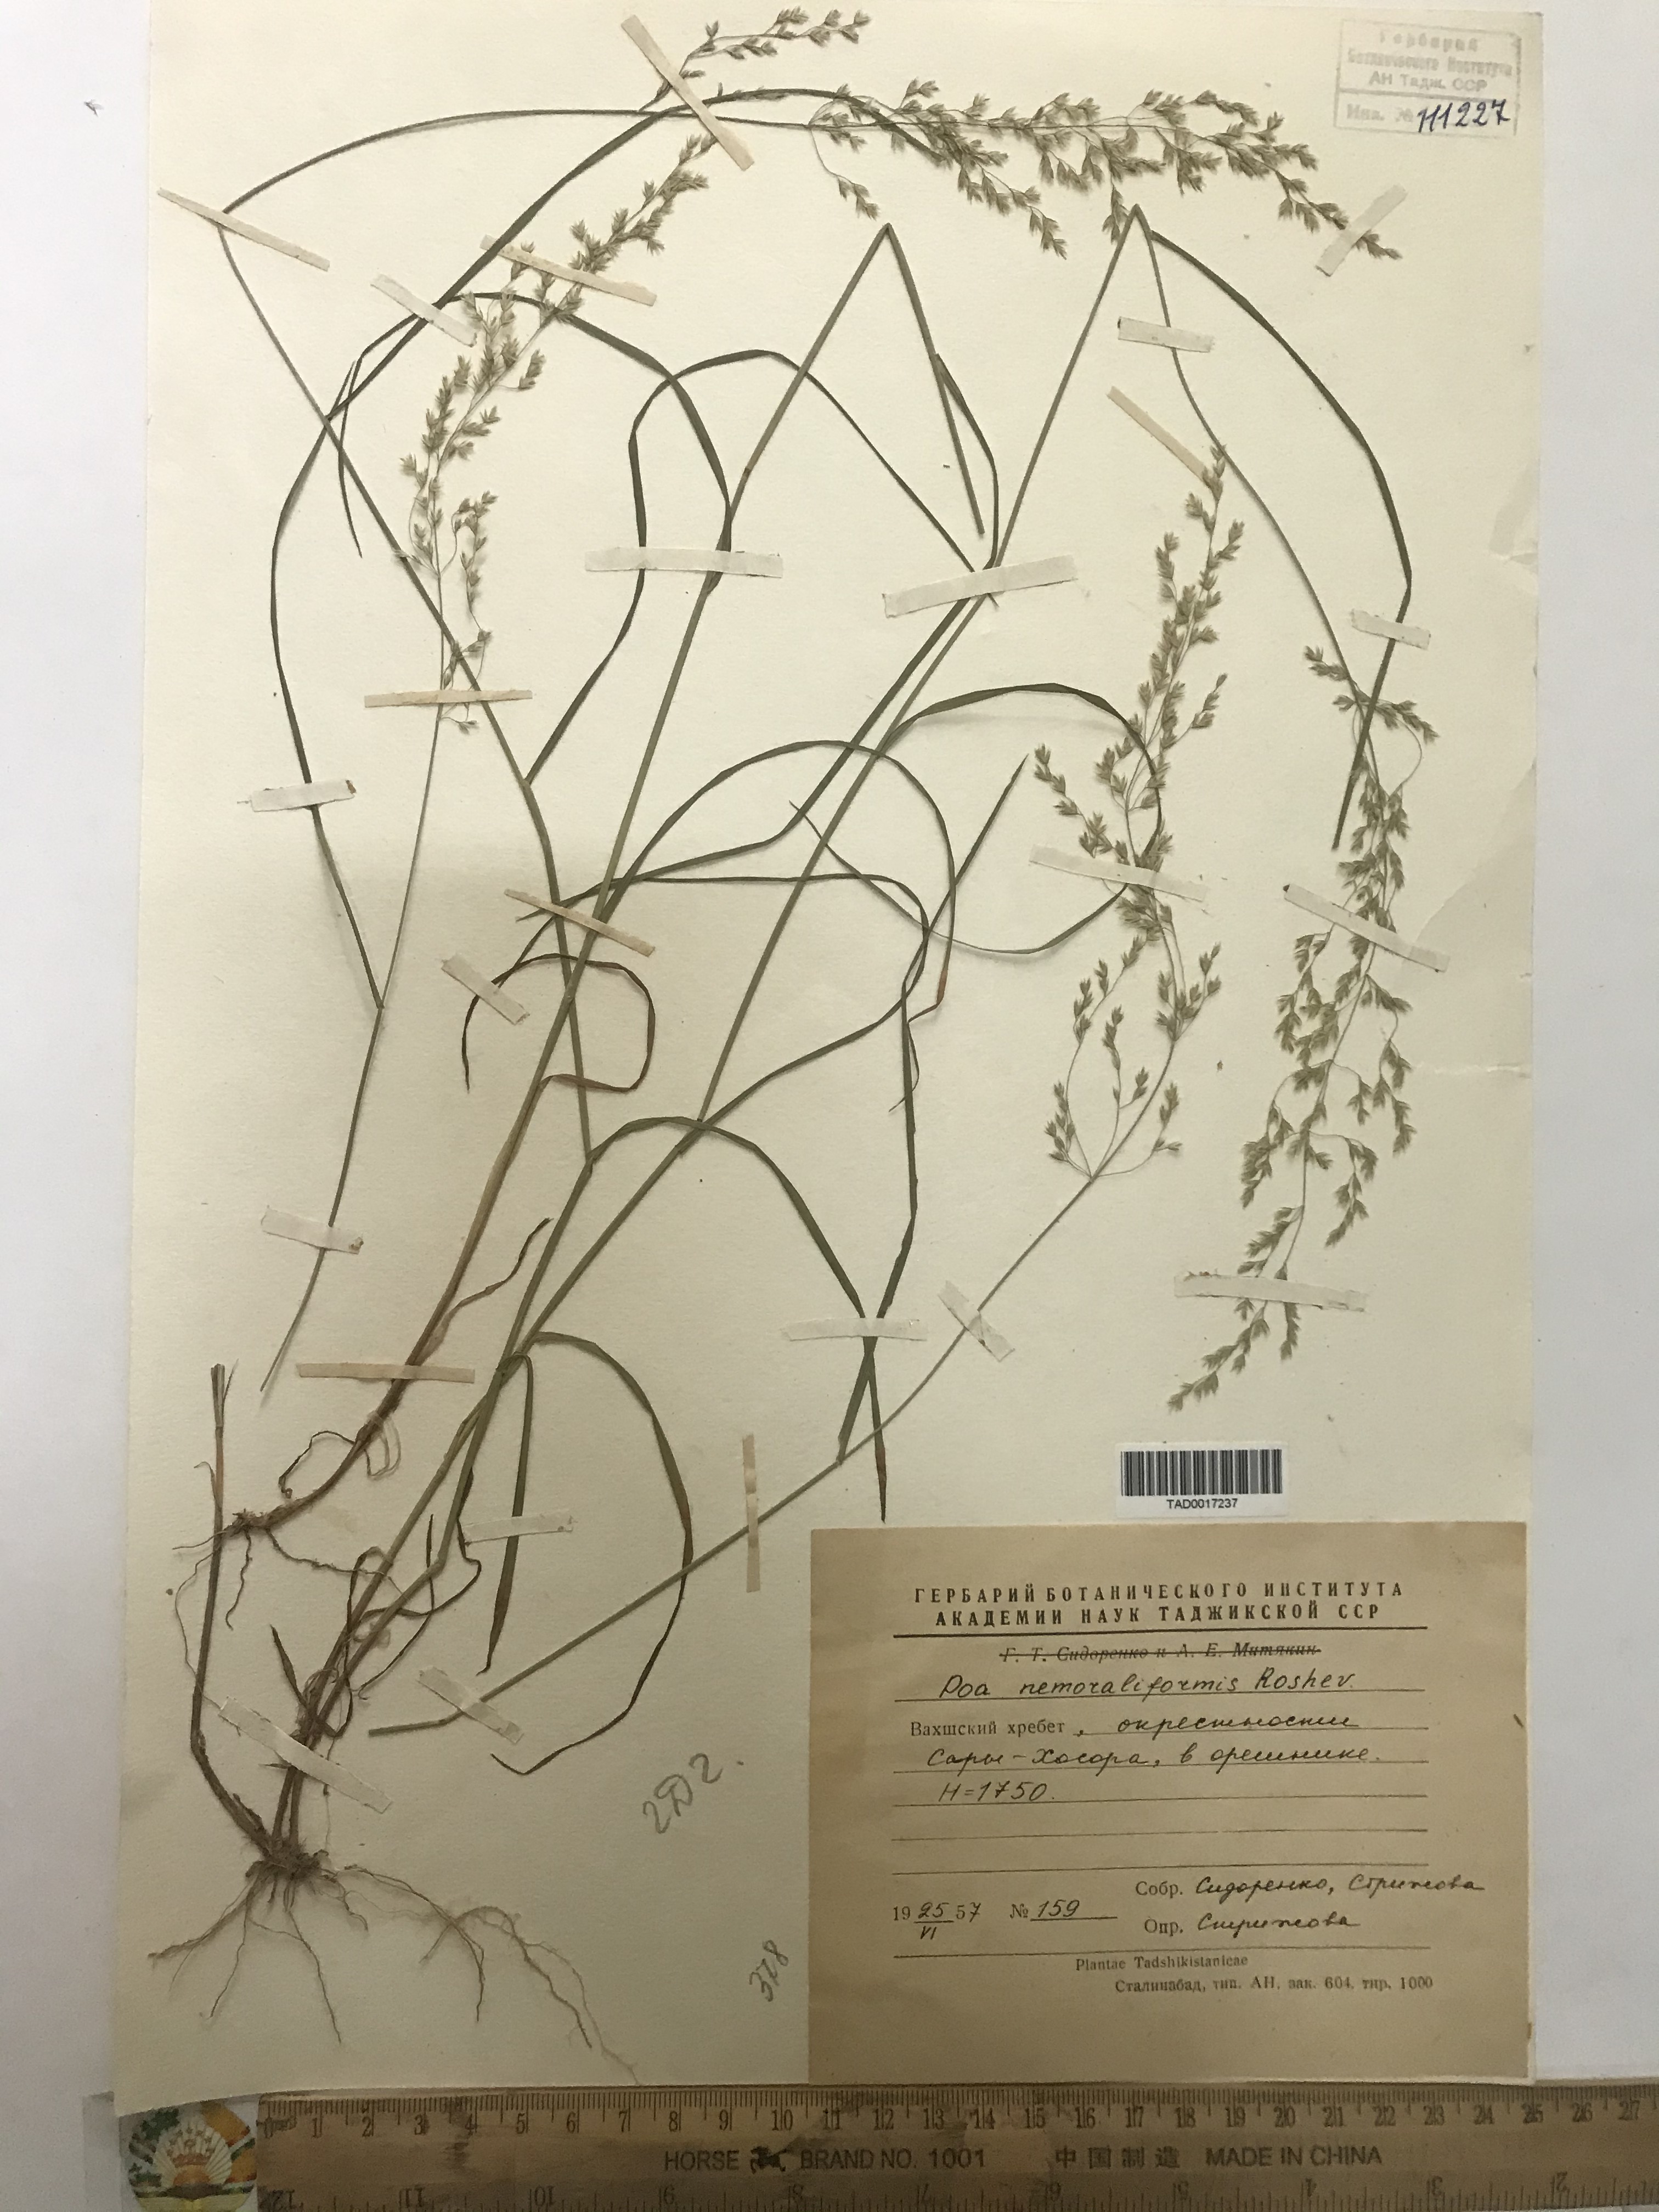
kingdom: Plantae
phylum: Tracheophyta
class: Liliopsida
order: Poales
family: Poaceae
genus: Poa
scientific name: Poa urssulensis
